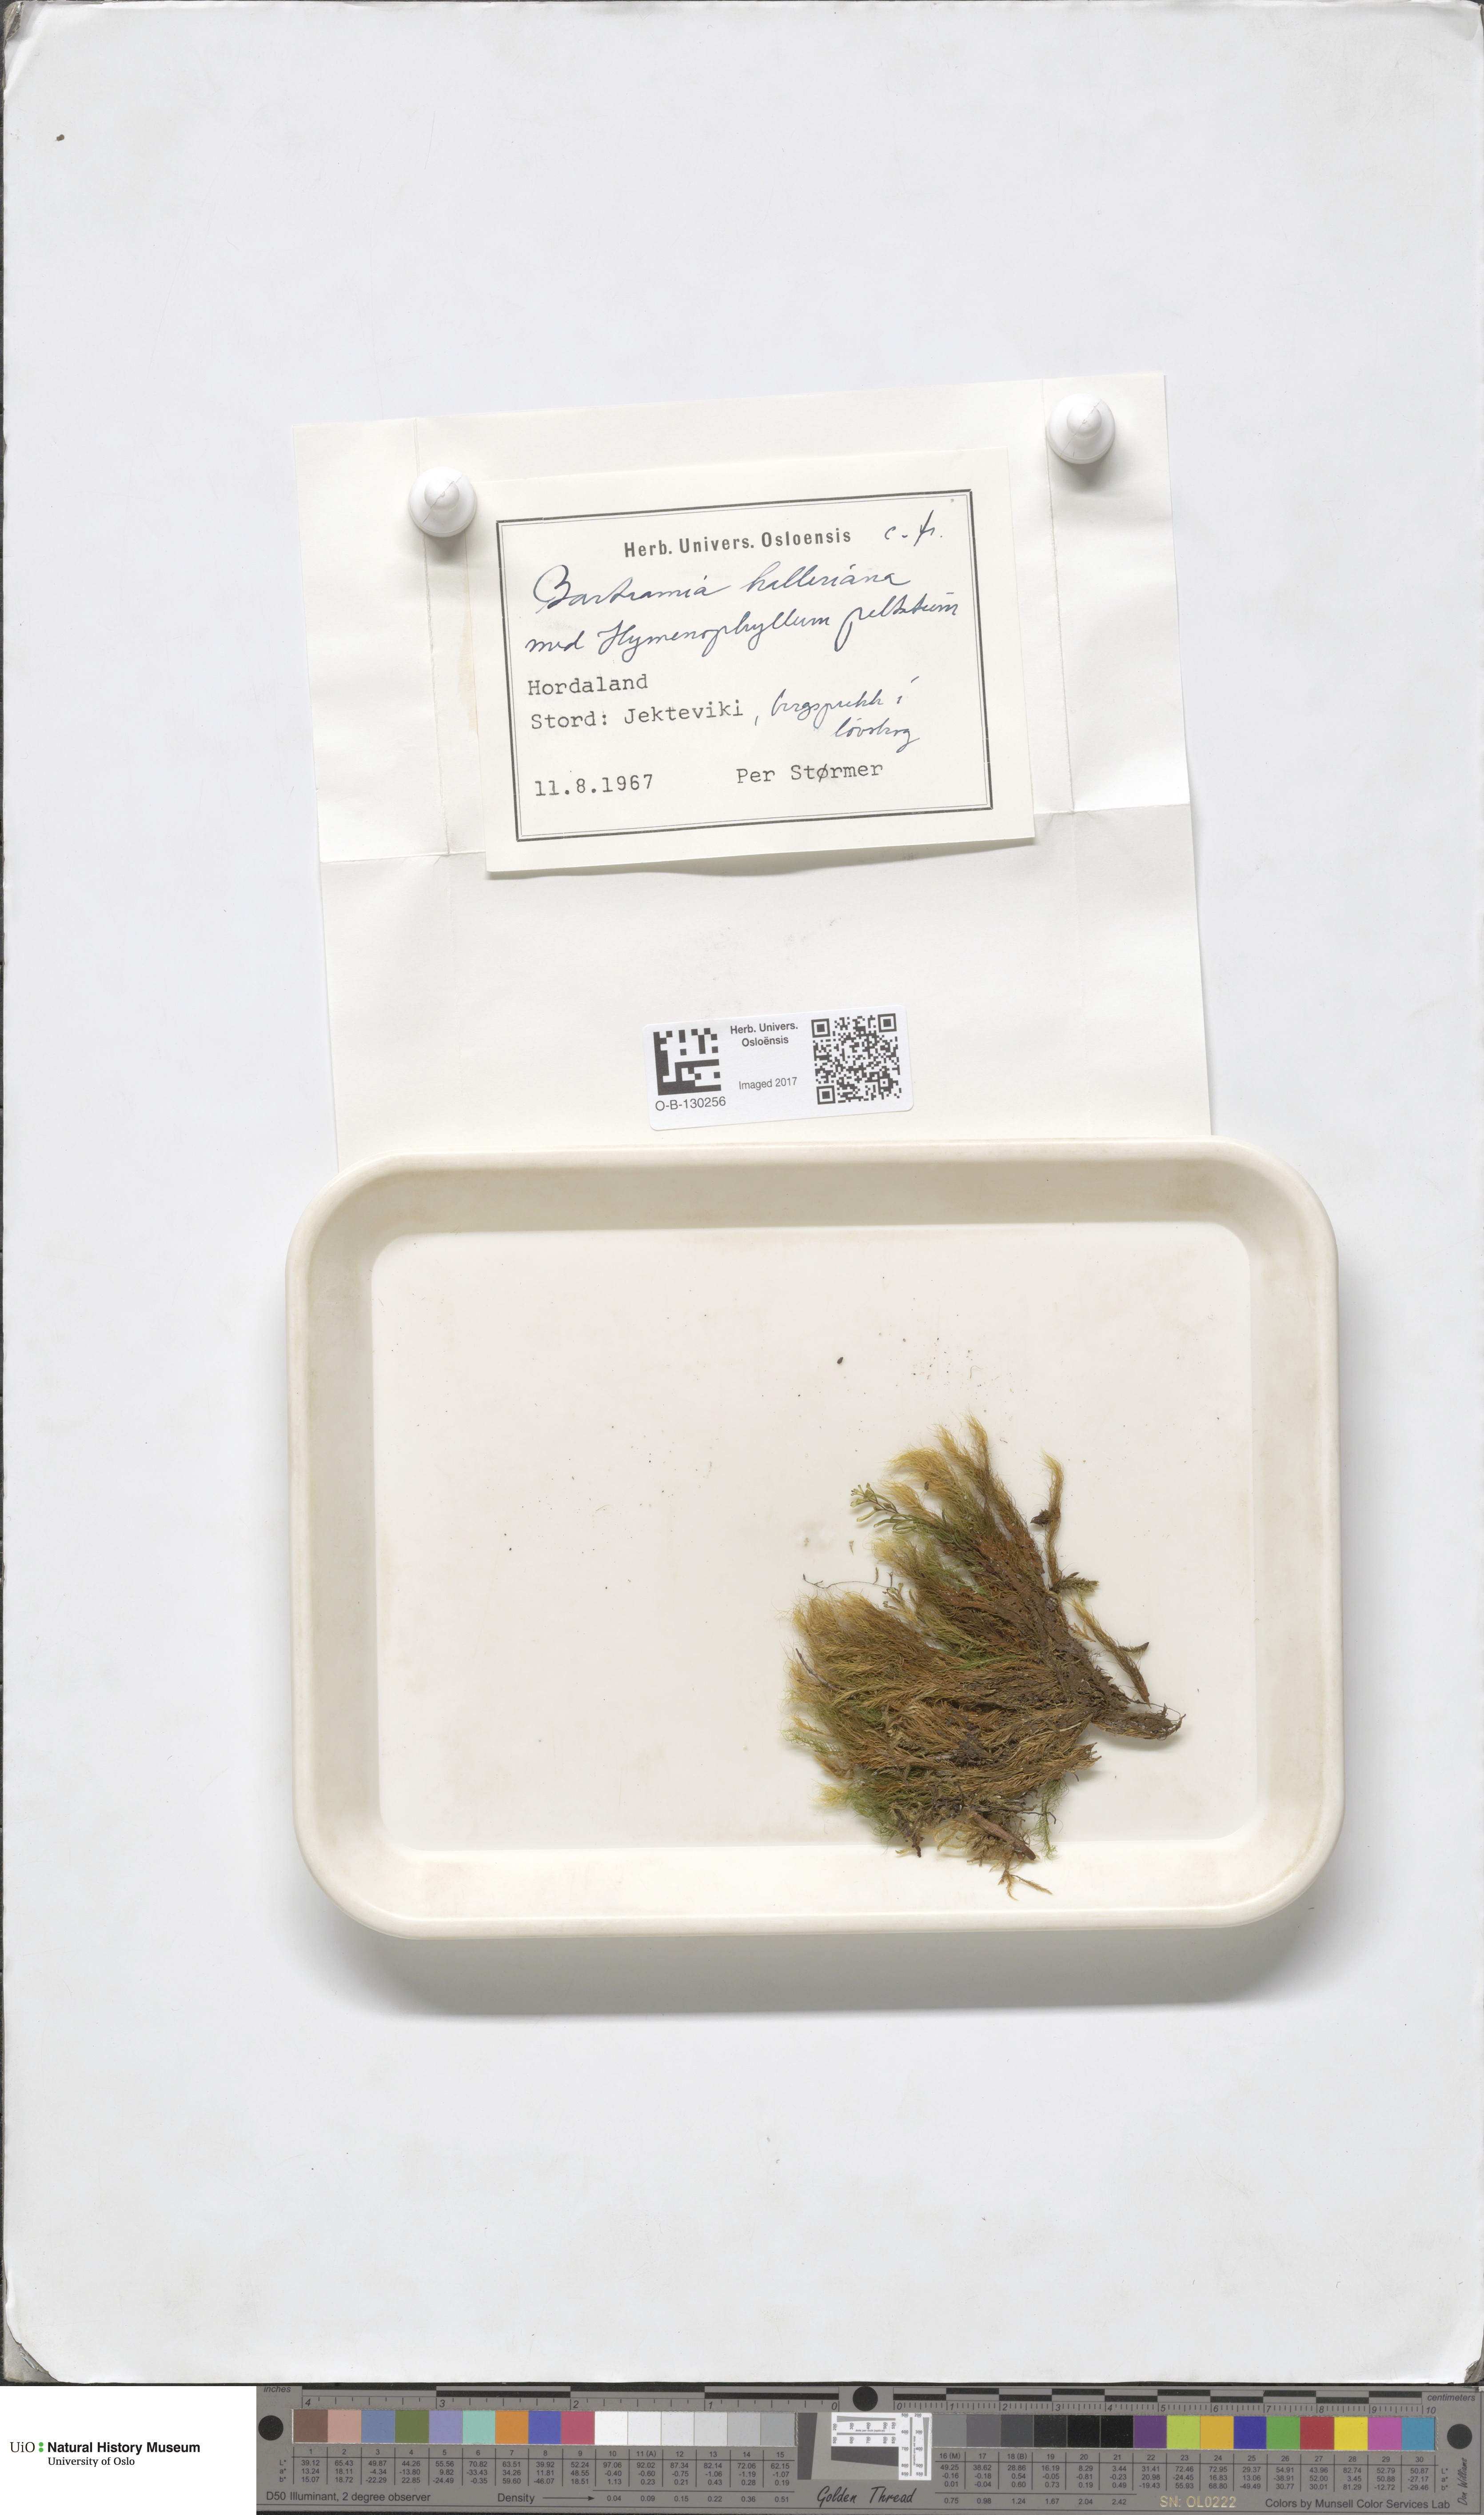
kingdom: Plantae
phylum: Bryophyta
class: Bryopsida
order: Bartramiales
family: Bartramiaceae
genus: Bartramia
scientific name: Bartramia halleriana
